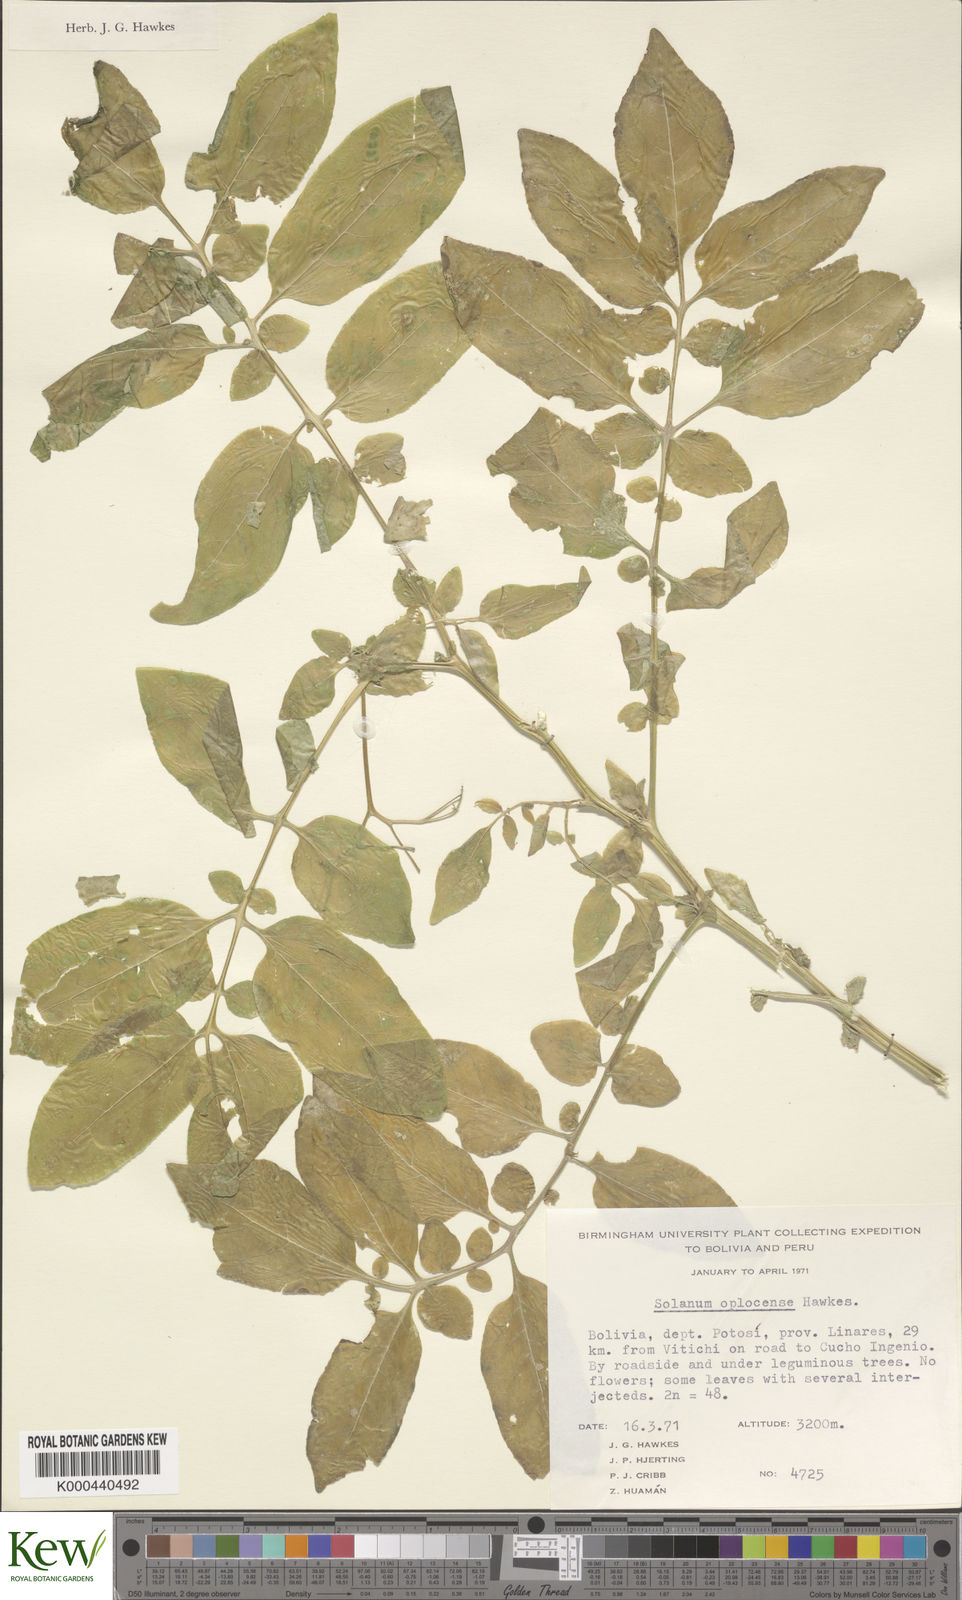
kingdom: Plantae
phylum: Tracheophyta
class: Magnoliopsida
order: Solanales
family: Solanaceae
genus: Solanum
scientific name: Solanum brevicaule
